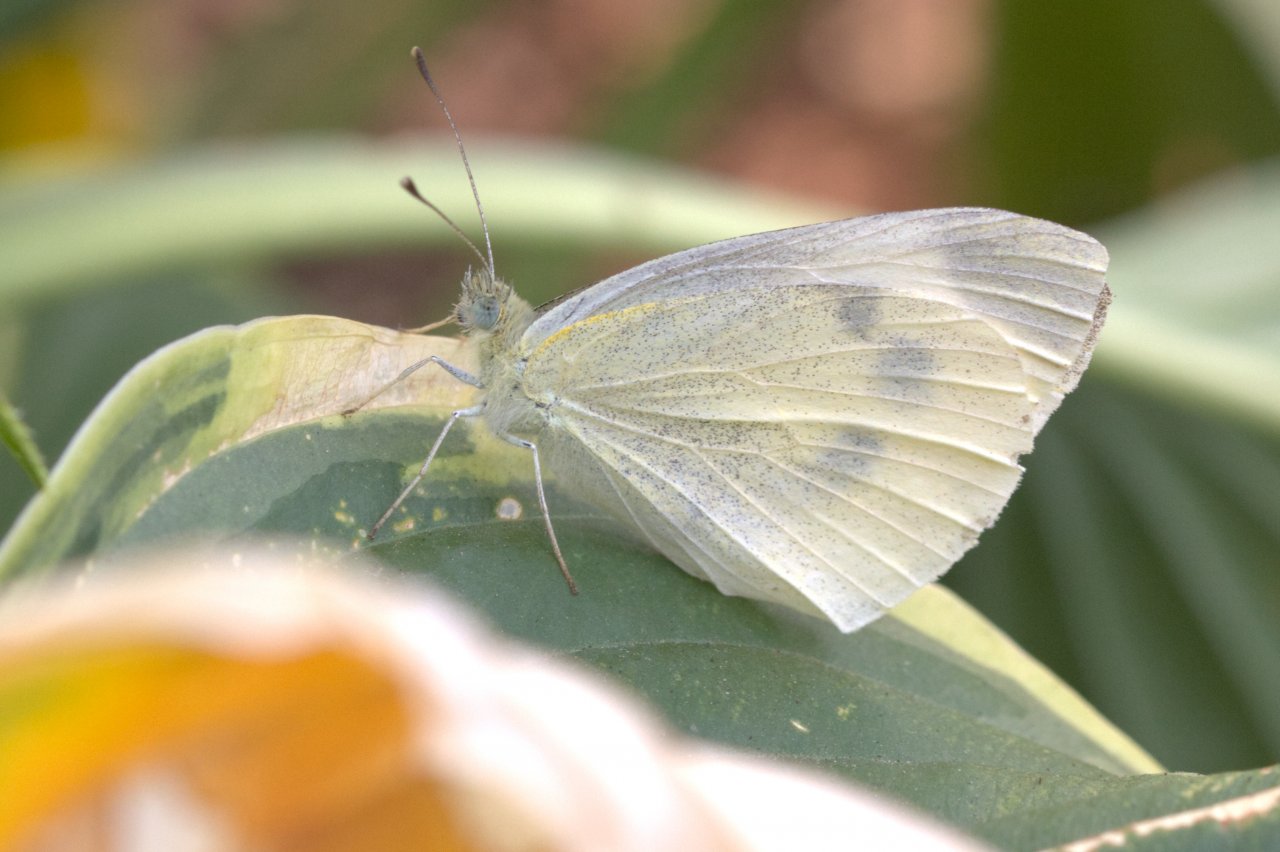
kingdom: Animalia
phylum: Arthropoda
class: Insecta
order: Lepidoptera
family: Pieridae
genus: Pieris
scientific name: Pieris rapae
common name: Cabbage White
